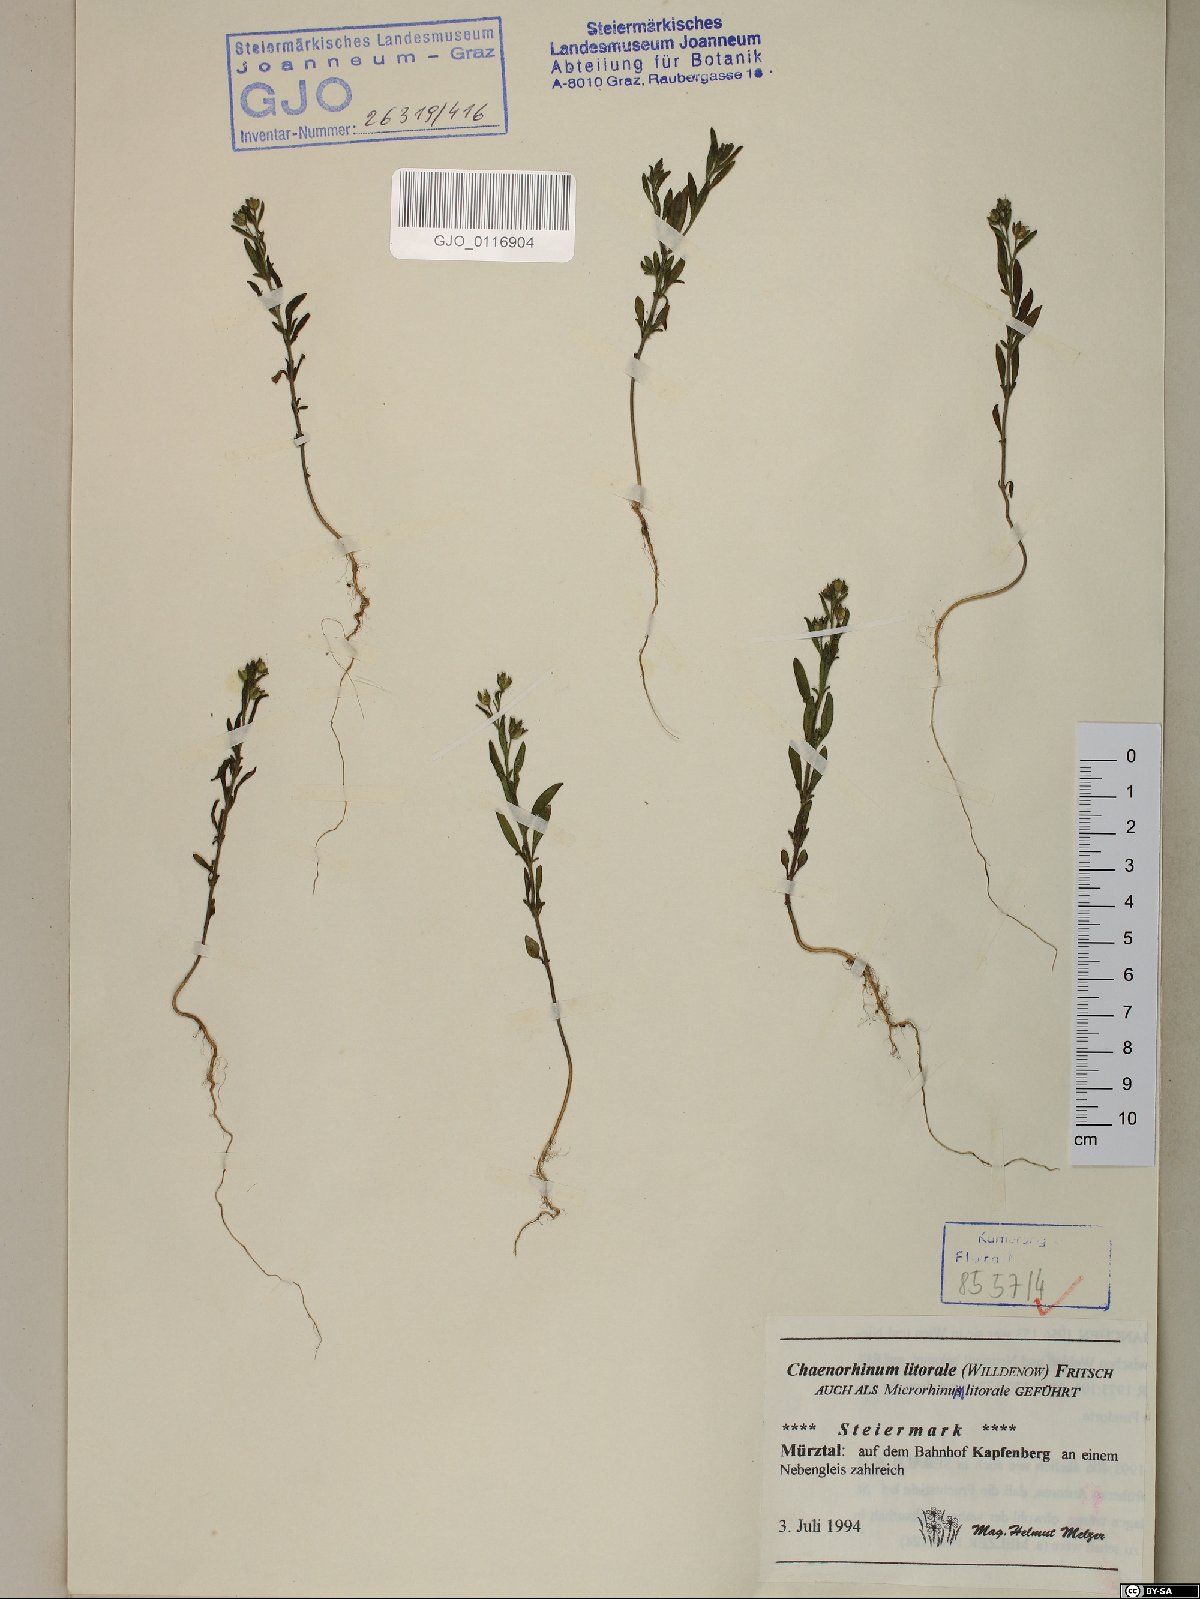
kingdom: Plantae
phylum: Tracheophyta
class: Magnoliopsida
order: Lamiales
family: Plantaginaceae
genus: Chaenorhinum
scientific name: Chaenorhinum litorale
